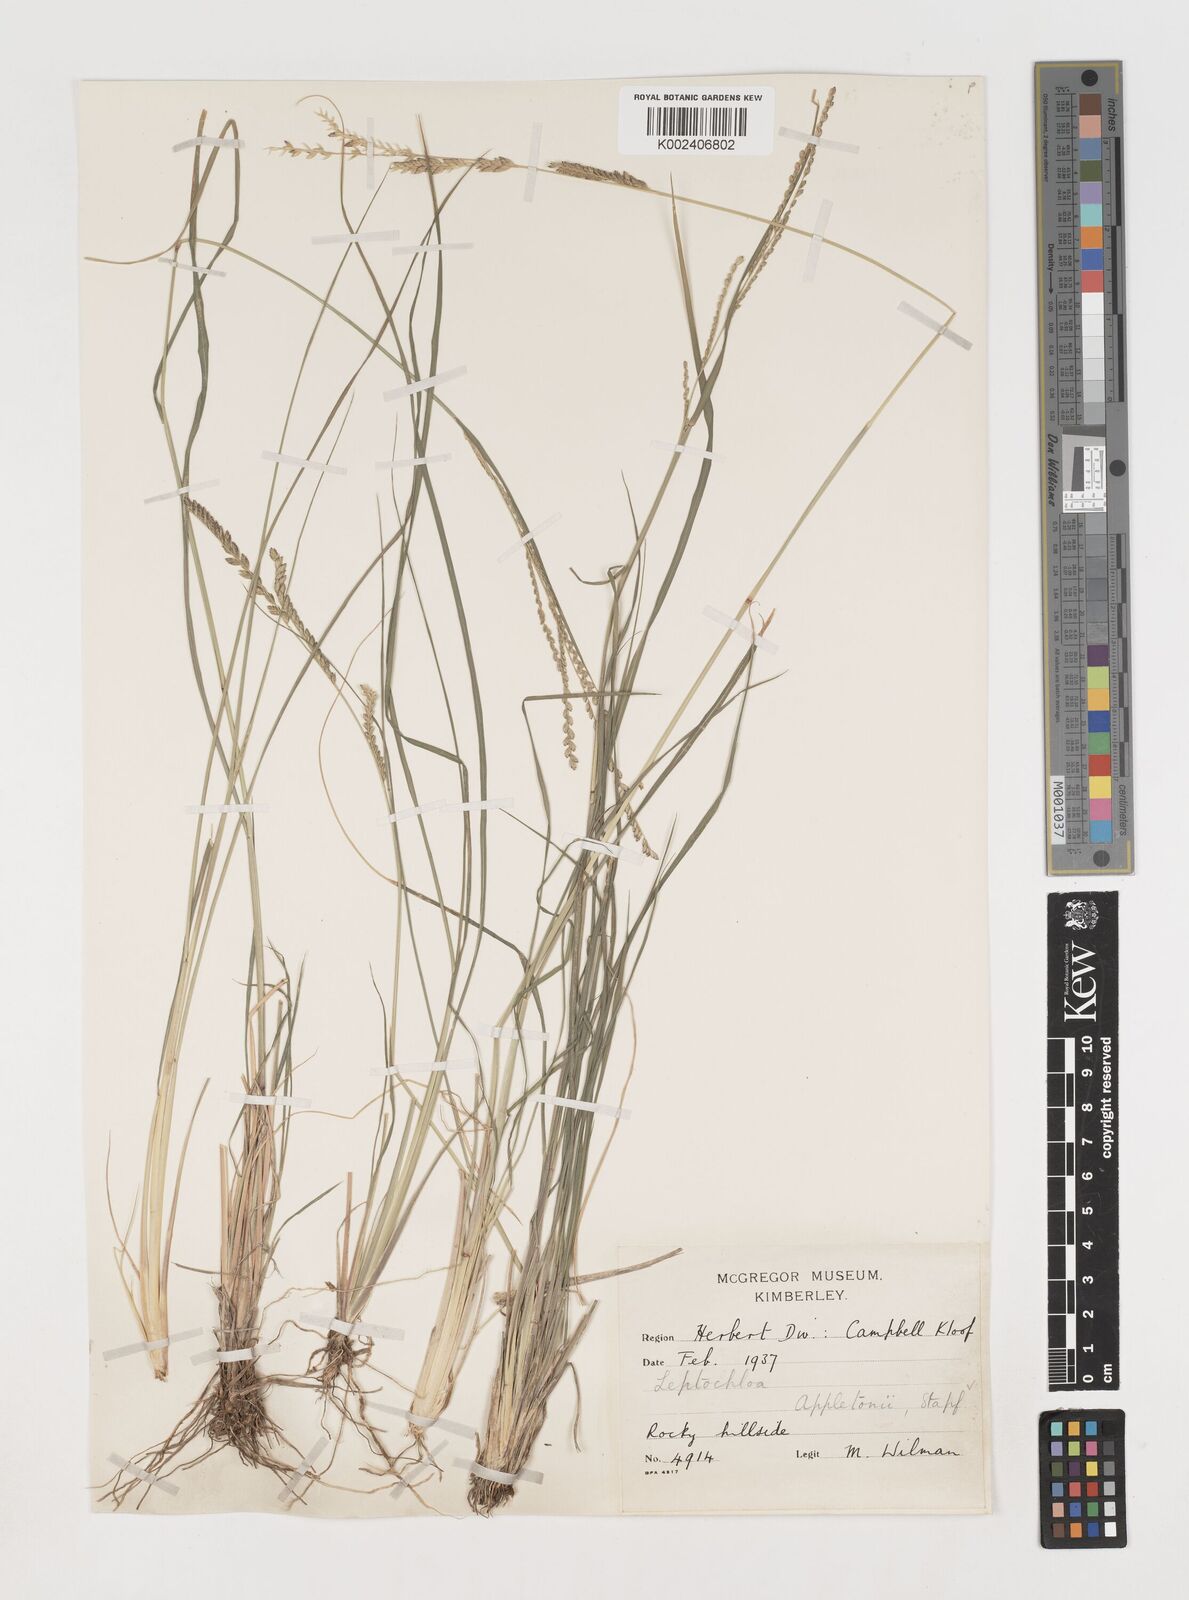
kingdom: Plantae
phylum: Tracheophyta
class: Liliopsida
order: Poales
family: Poaceae
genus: Disakisperma
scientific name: Disakisperma yemenicum
